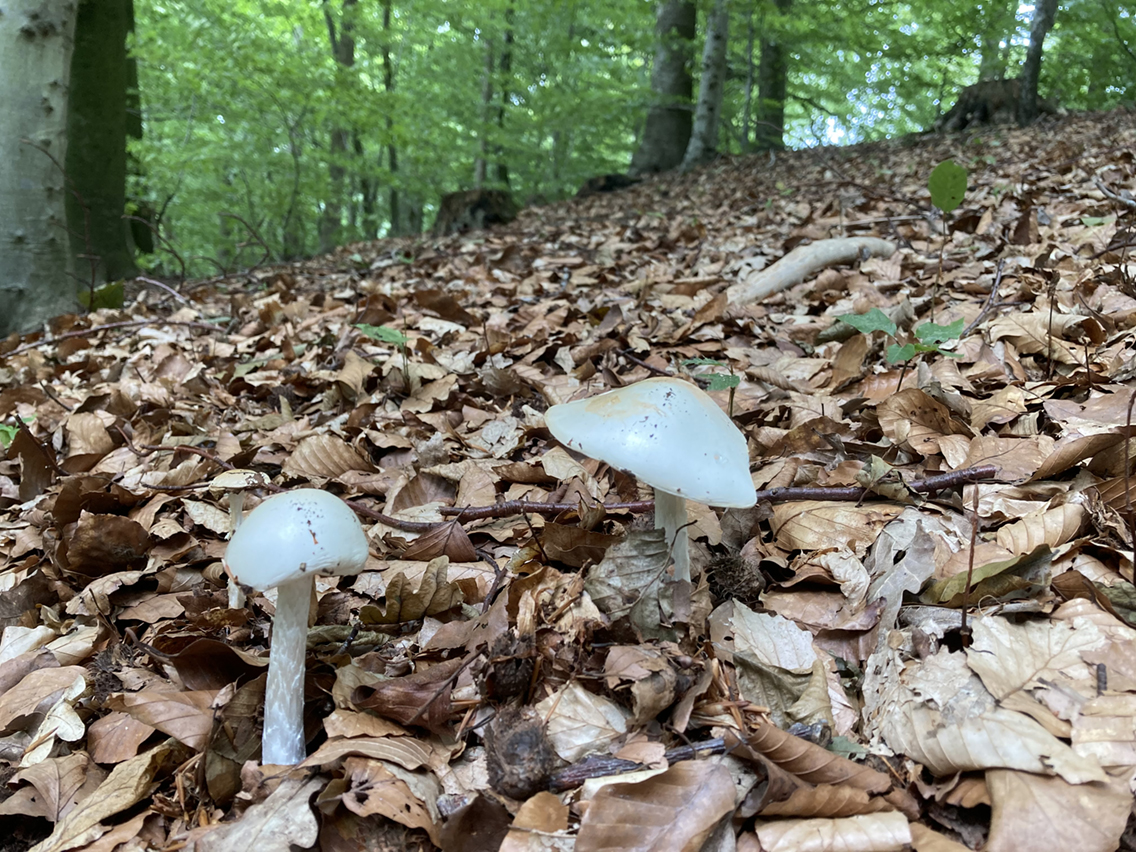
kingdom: Fungi
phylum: Basidiomycota
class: Agaricomycetes
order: Agaricales
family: Amanitaceae
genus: Amanita
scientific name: Amanita virosa
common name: snehvid fluesvamp
